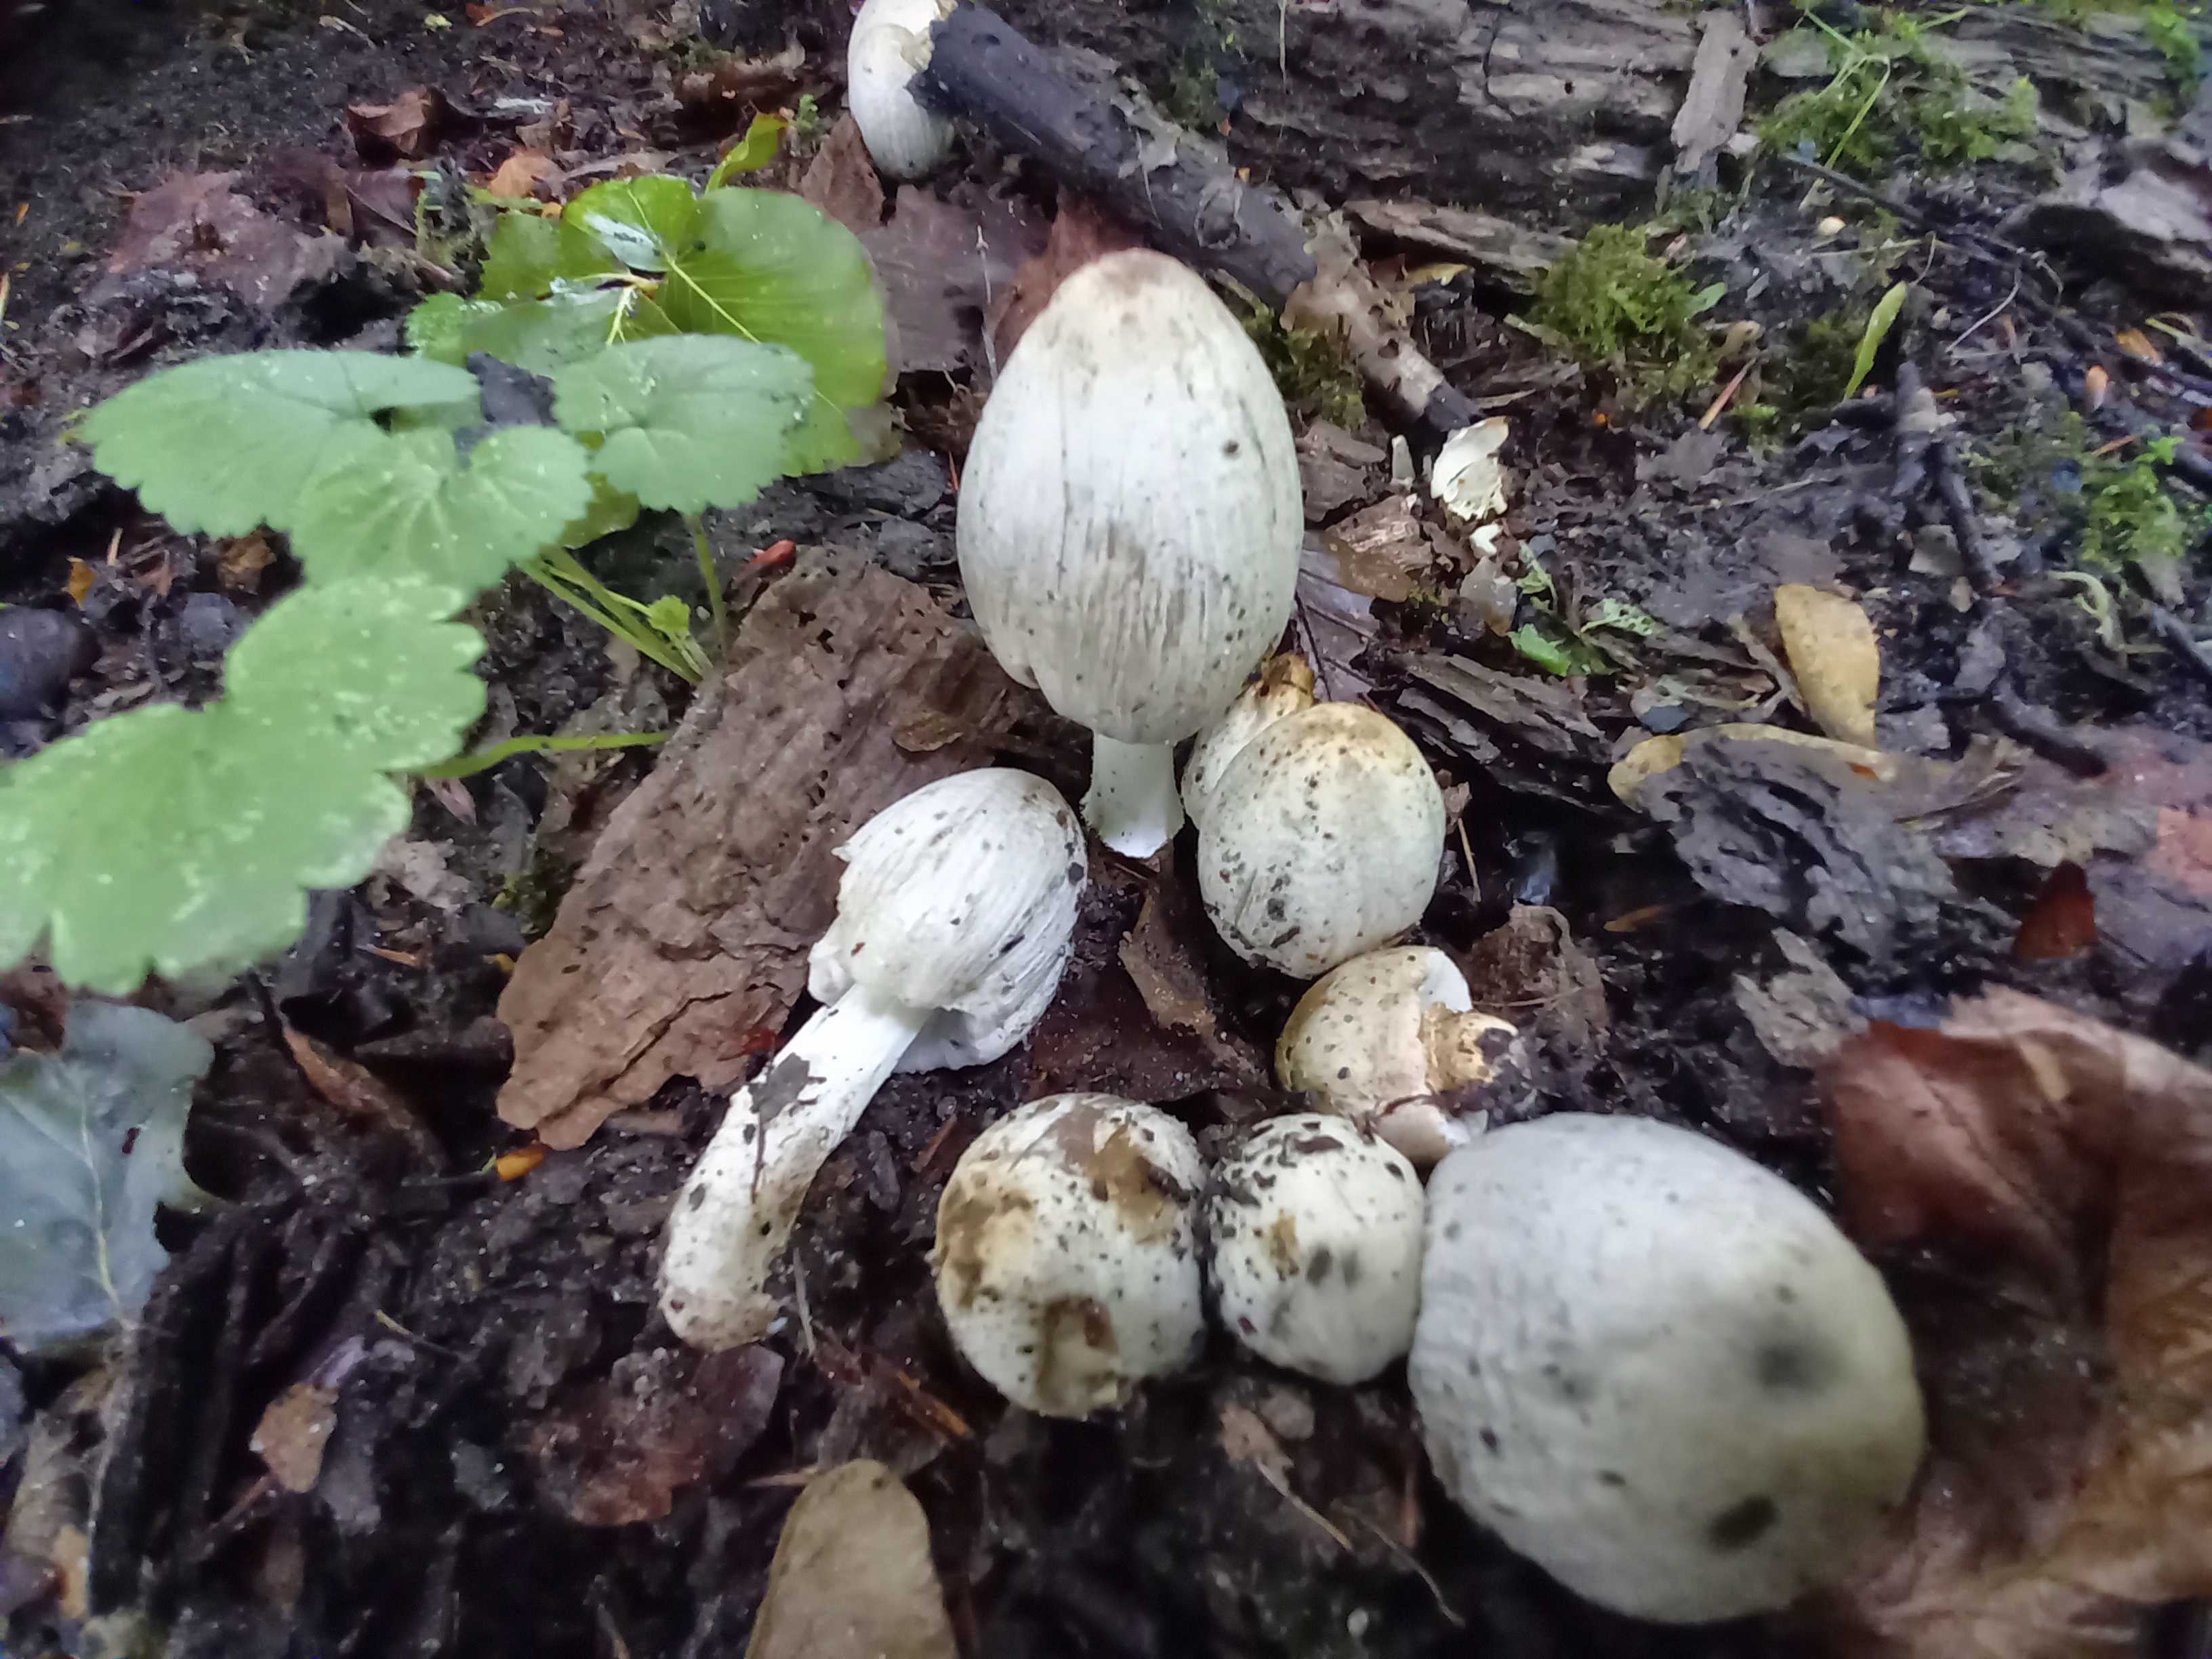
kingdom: Fungi
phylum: Basidiomycota
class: Agaricomycetes
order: Agaricales
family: Psathyrellaceae
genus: Coprinopsis
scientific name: Coprinopsis atramentaria
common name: almindelig blækhat
